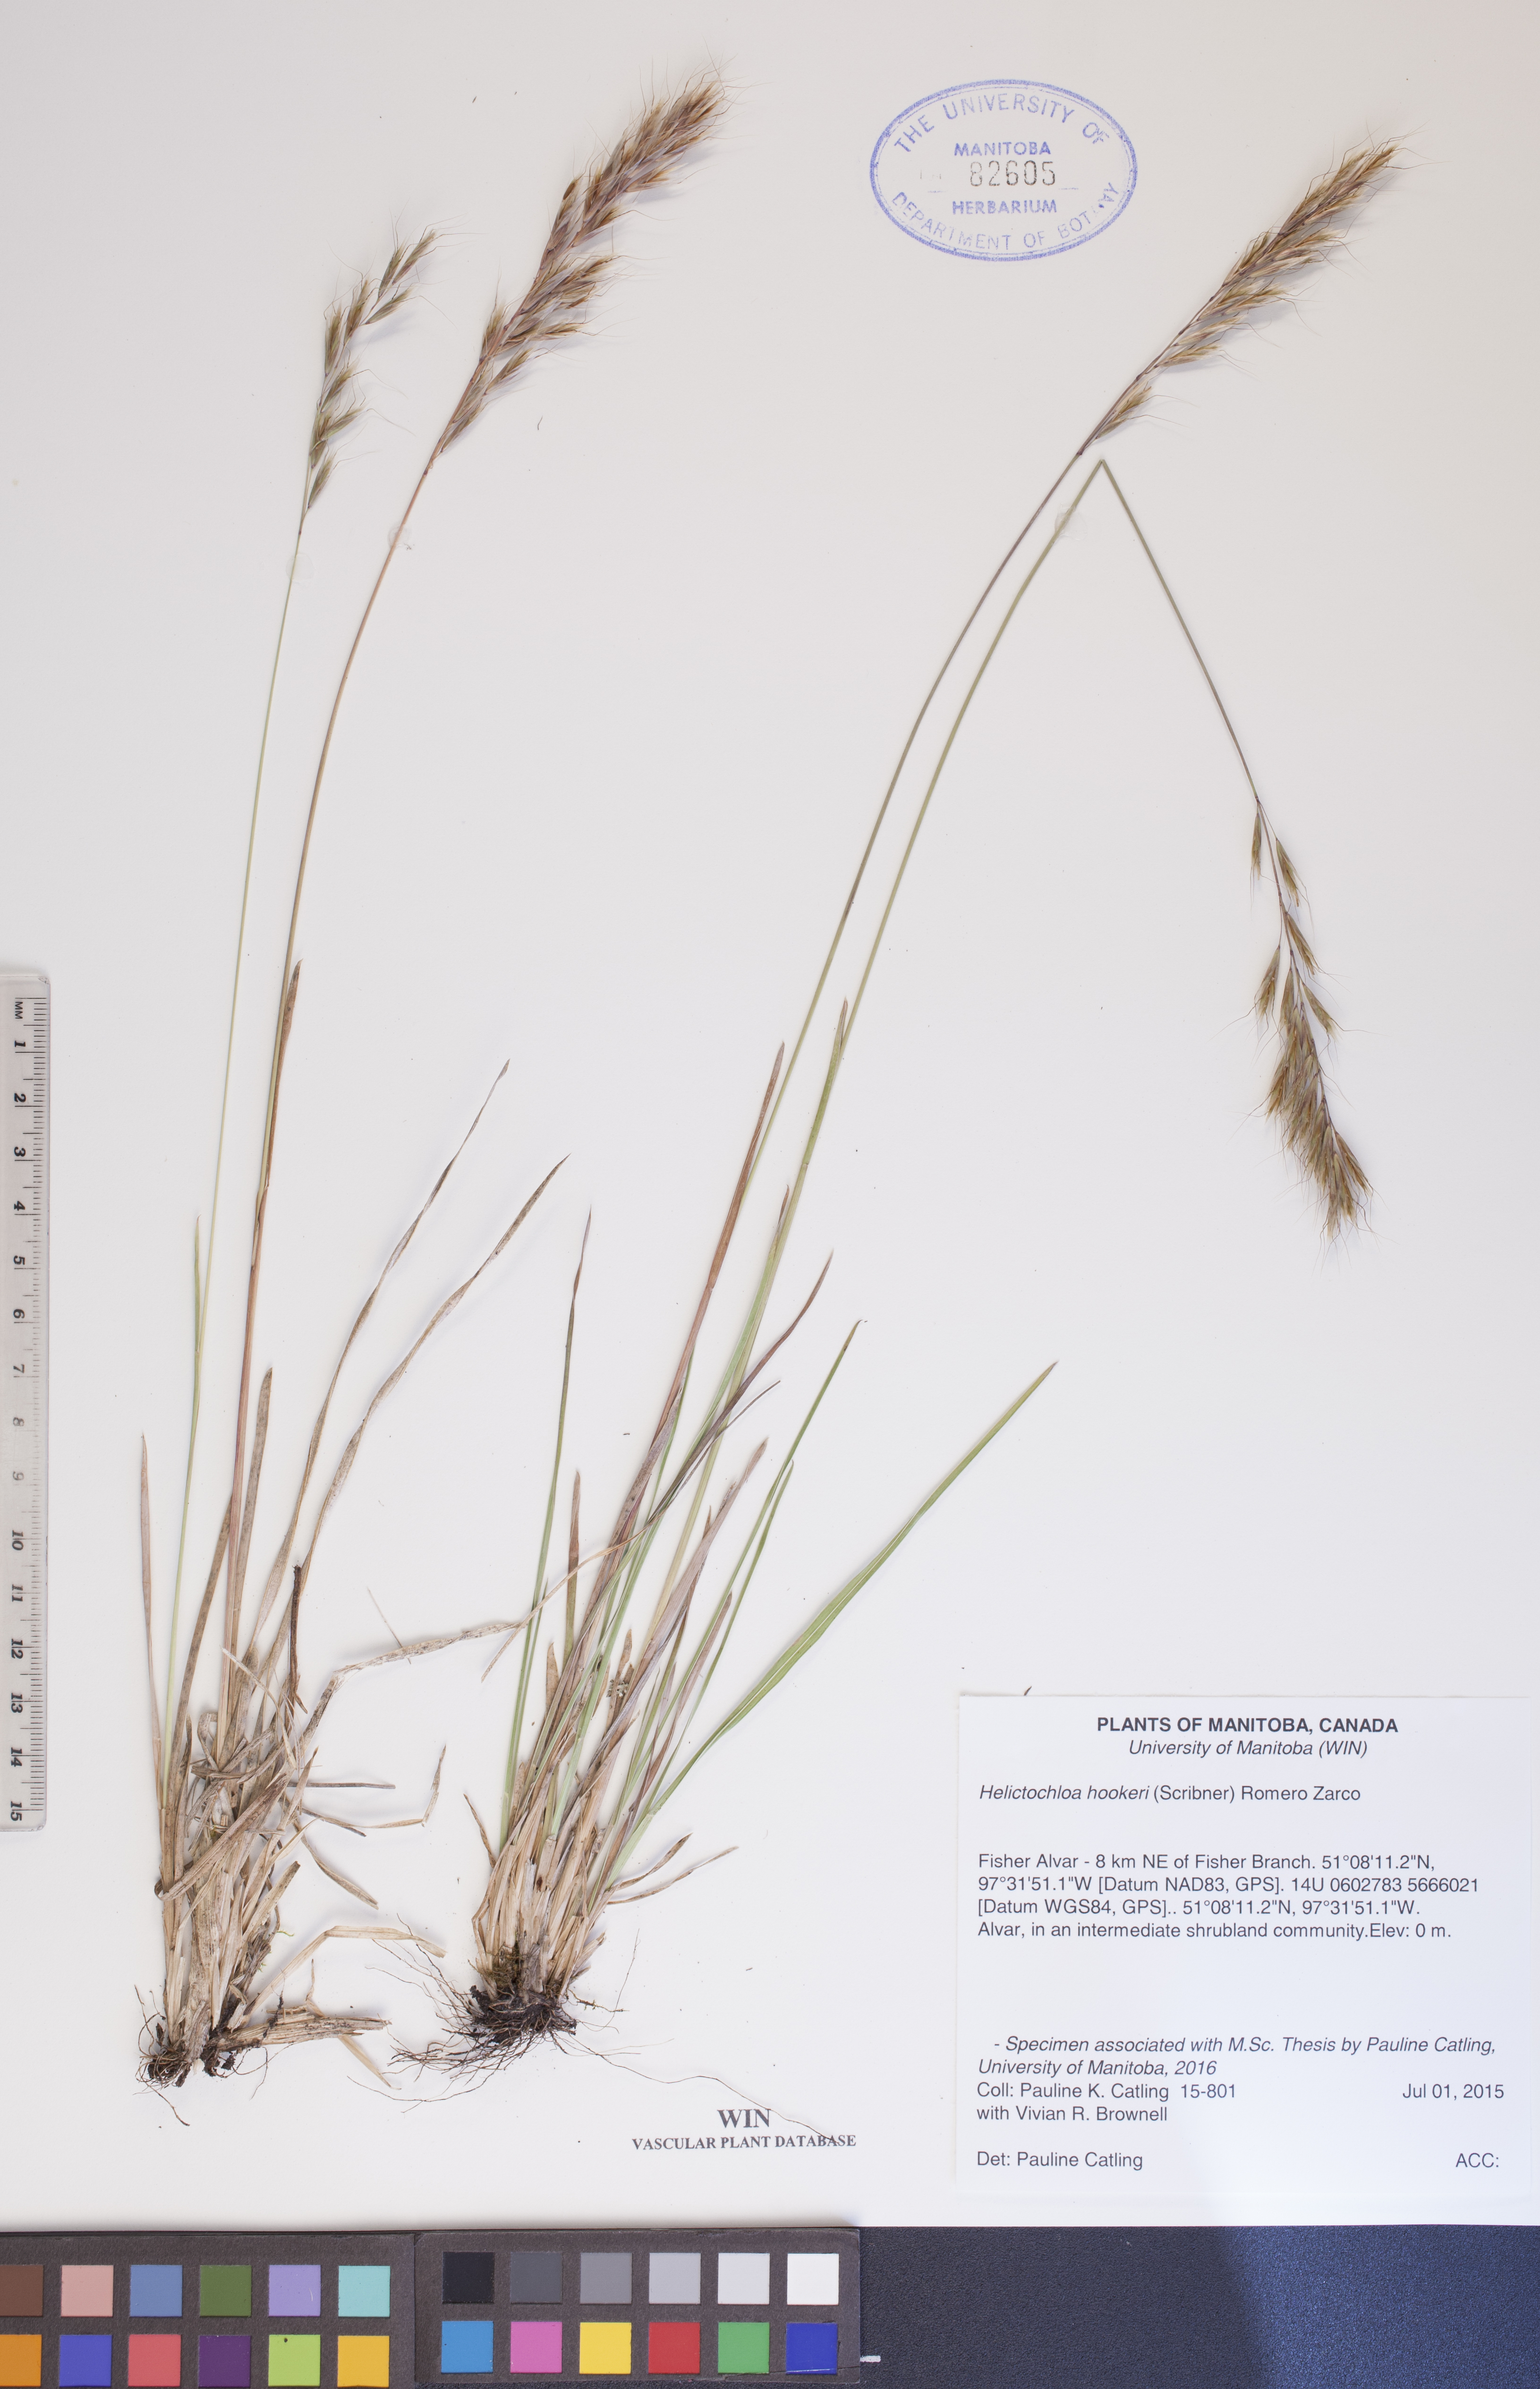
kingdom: Plantae
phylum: Tracheophyta
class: Liliopsida
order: Poales
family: Poaceae
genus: Helictochloa
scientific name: Helictochloa hookeri
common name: Hooker's alpine oatgrass
